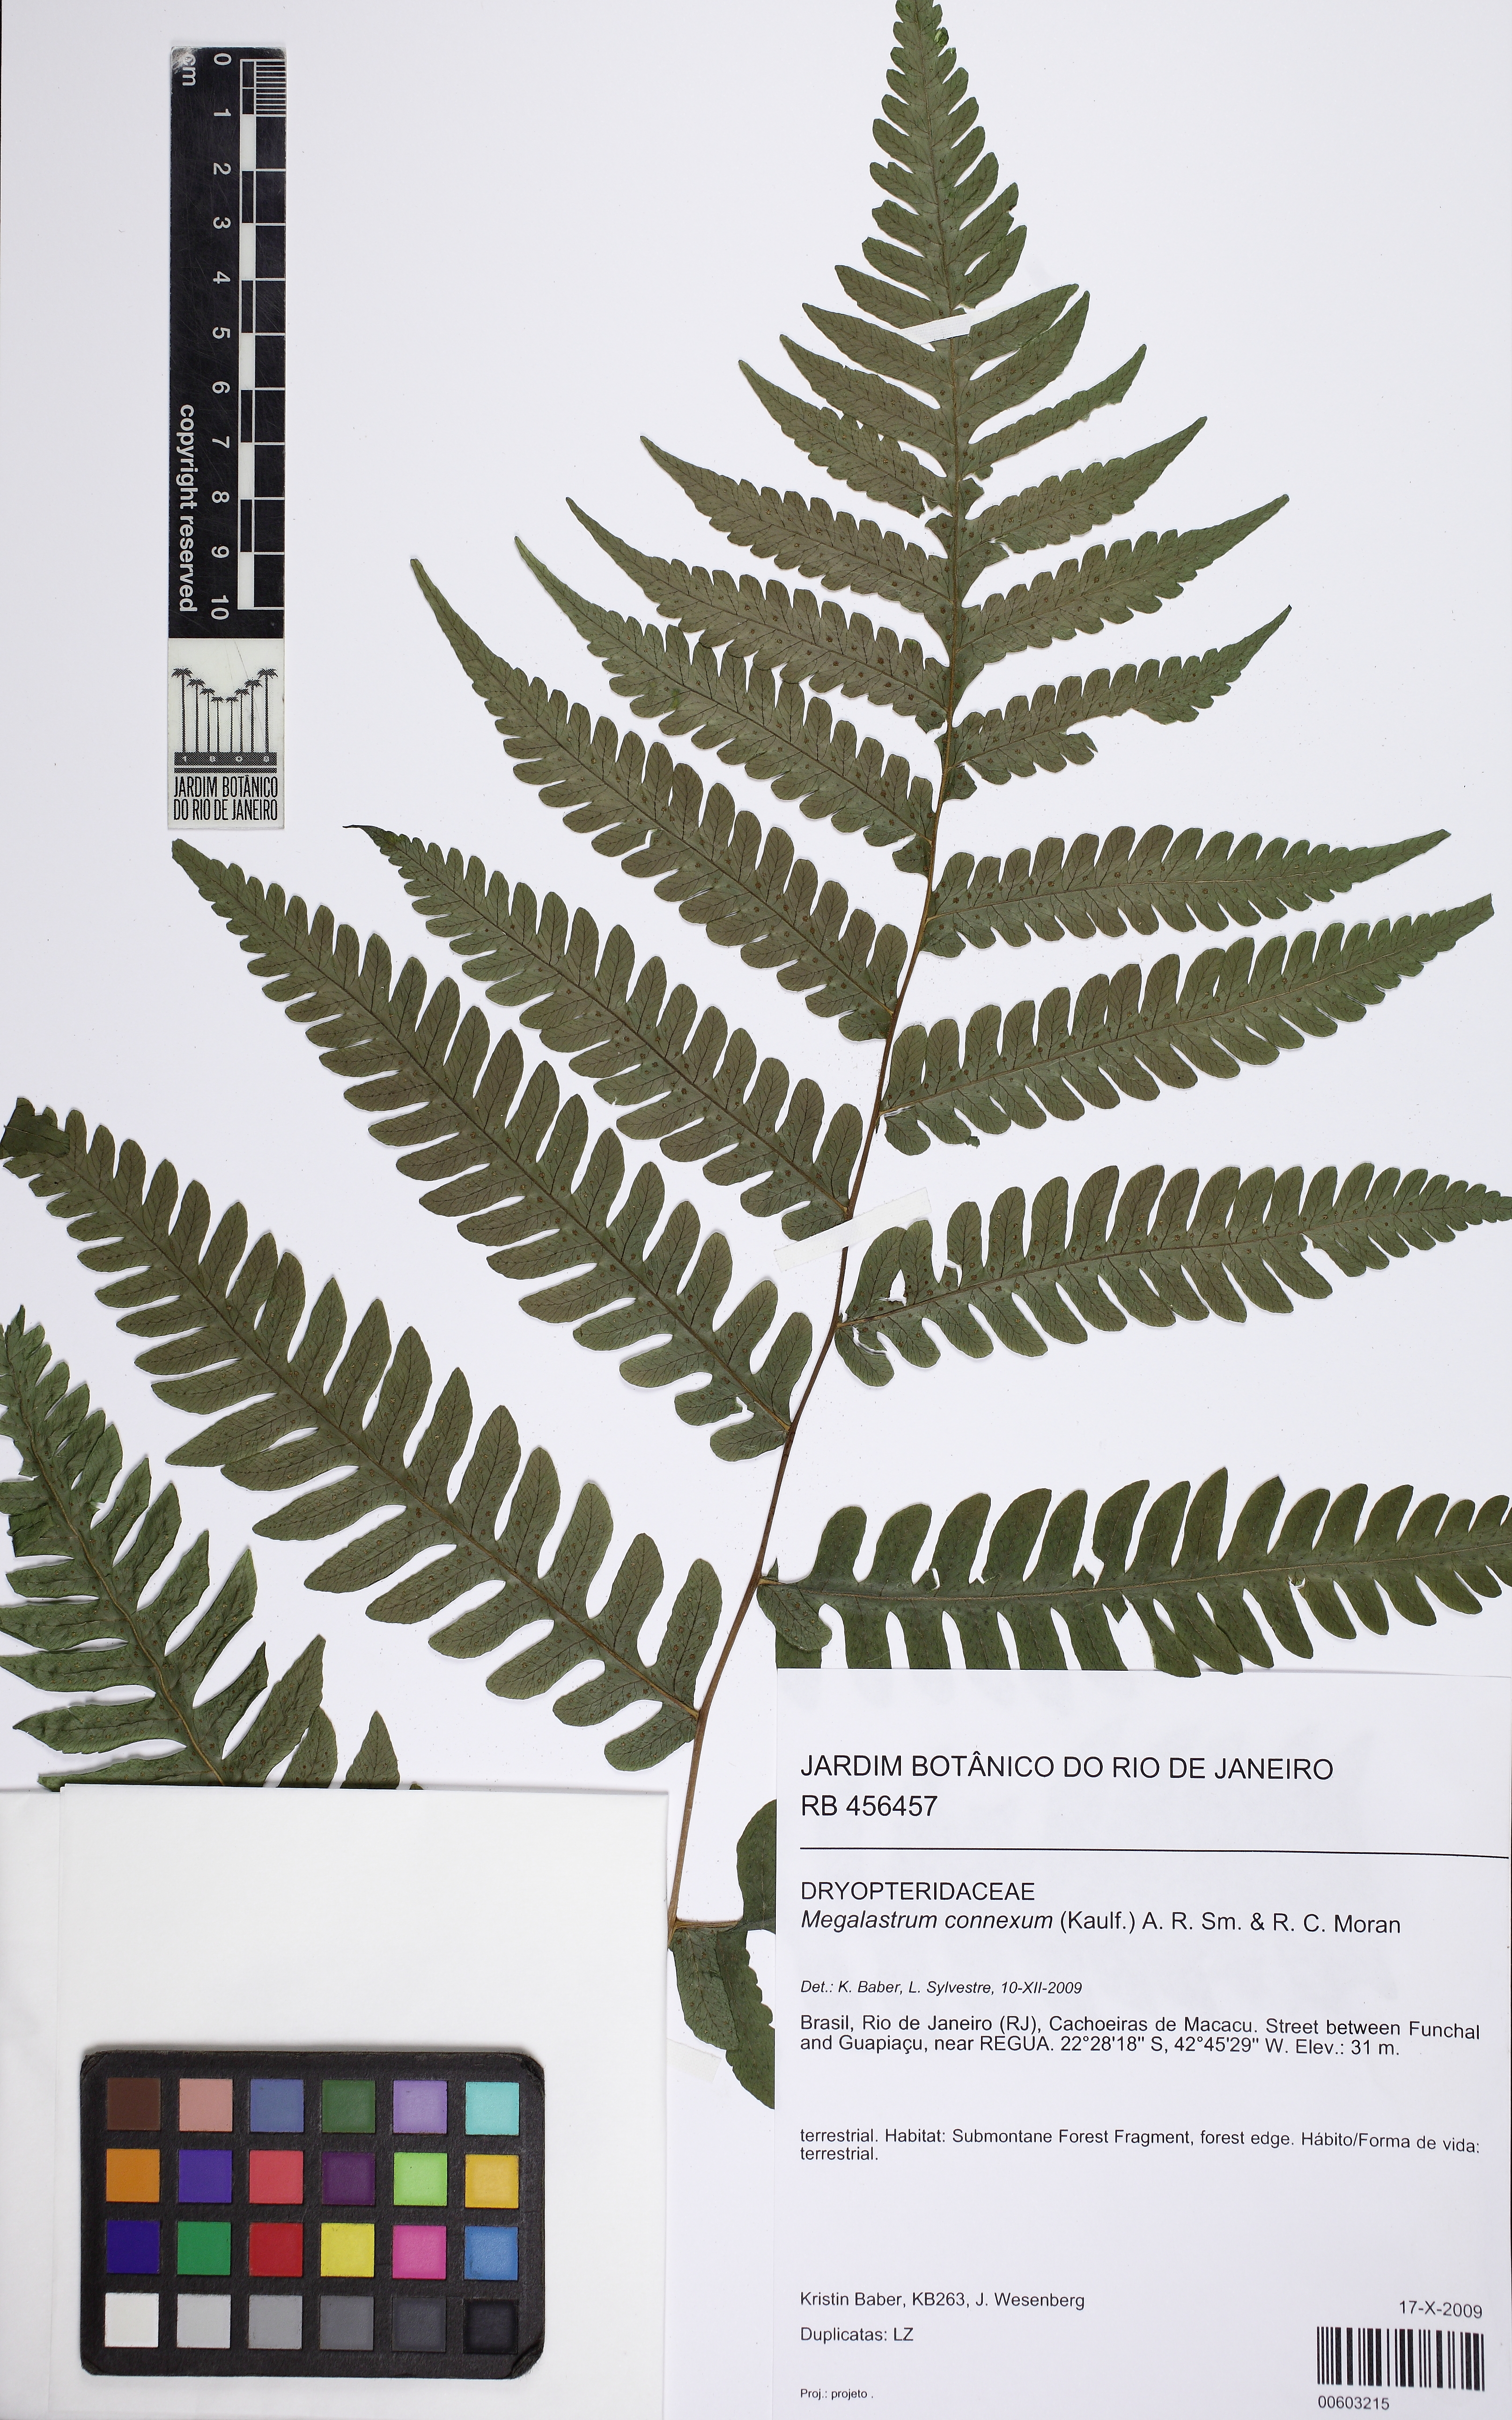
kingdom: Plantae
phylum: Tracheophyta
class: Polypodiopsida
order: Polypodiales
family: Dryopteridaceae
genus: Megalastrum
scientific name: Megalastrum connexum
